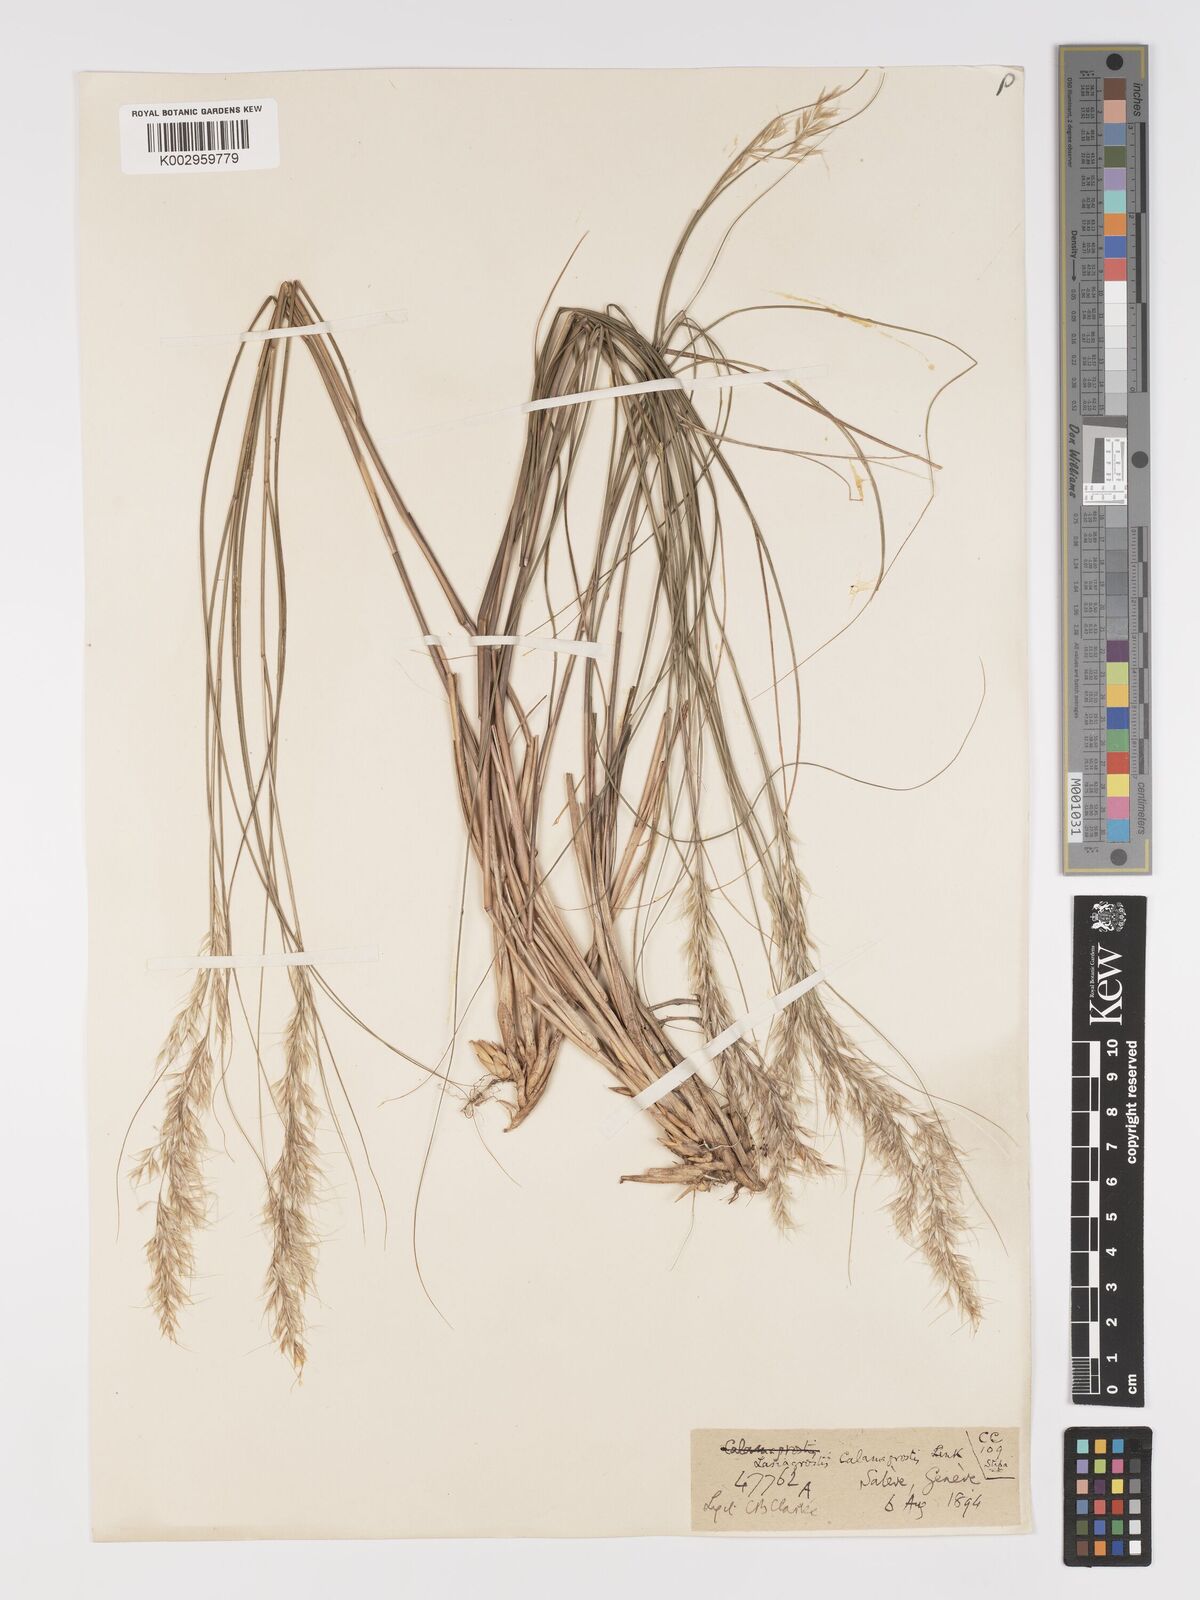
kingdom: Plantae
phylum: Tracheophyta
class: Liliopsida
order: Poales
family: Poaceae
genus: Achnatherum
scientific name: Achnatherum calamagrostis
